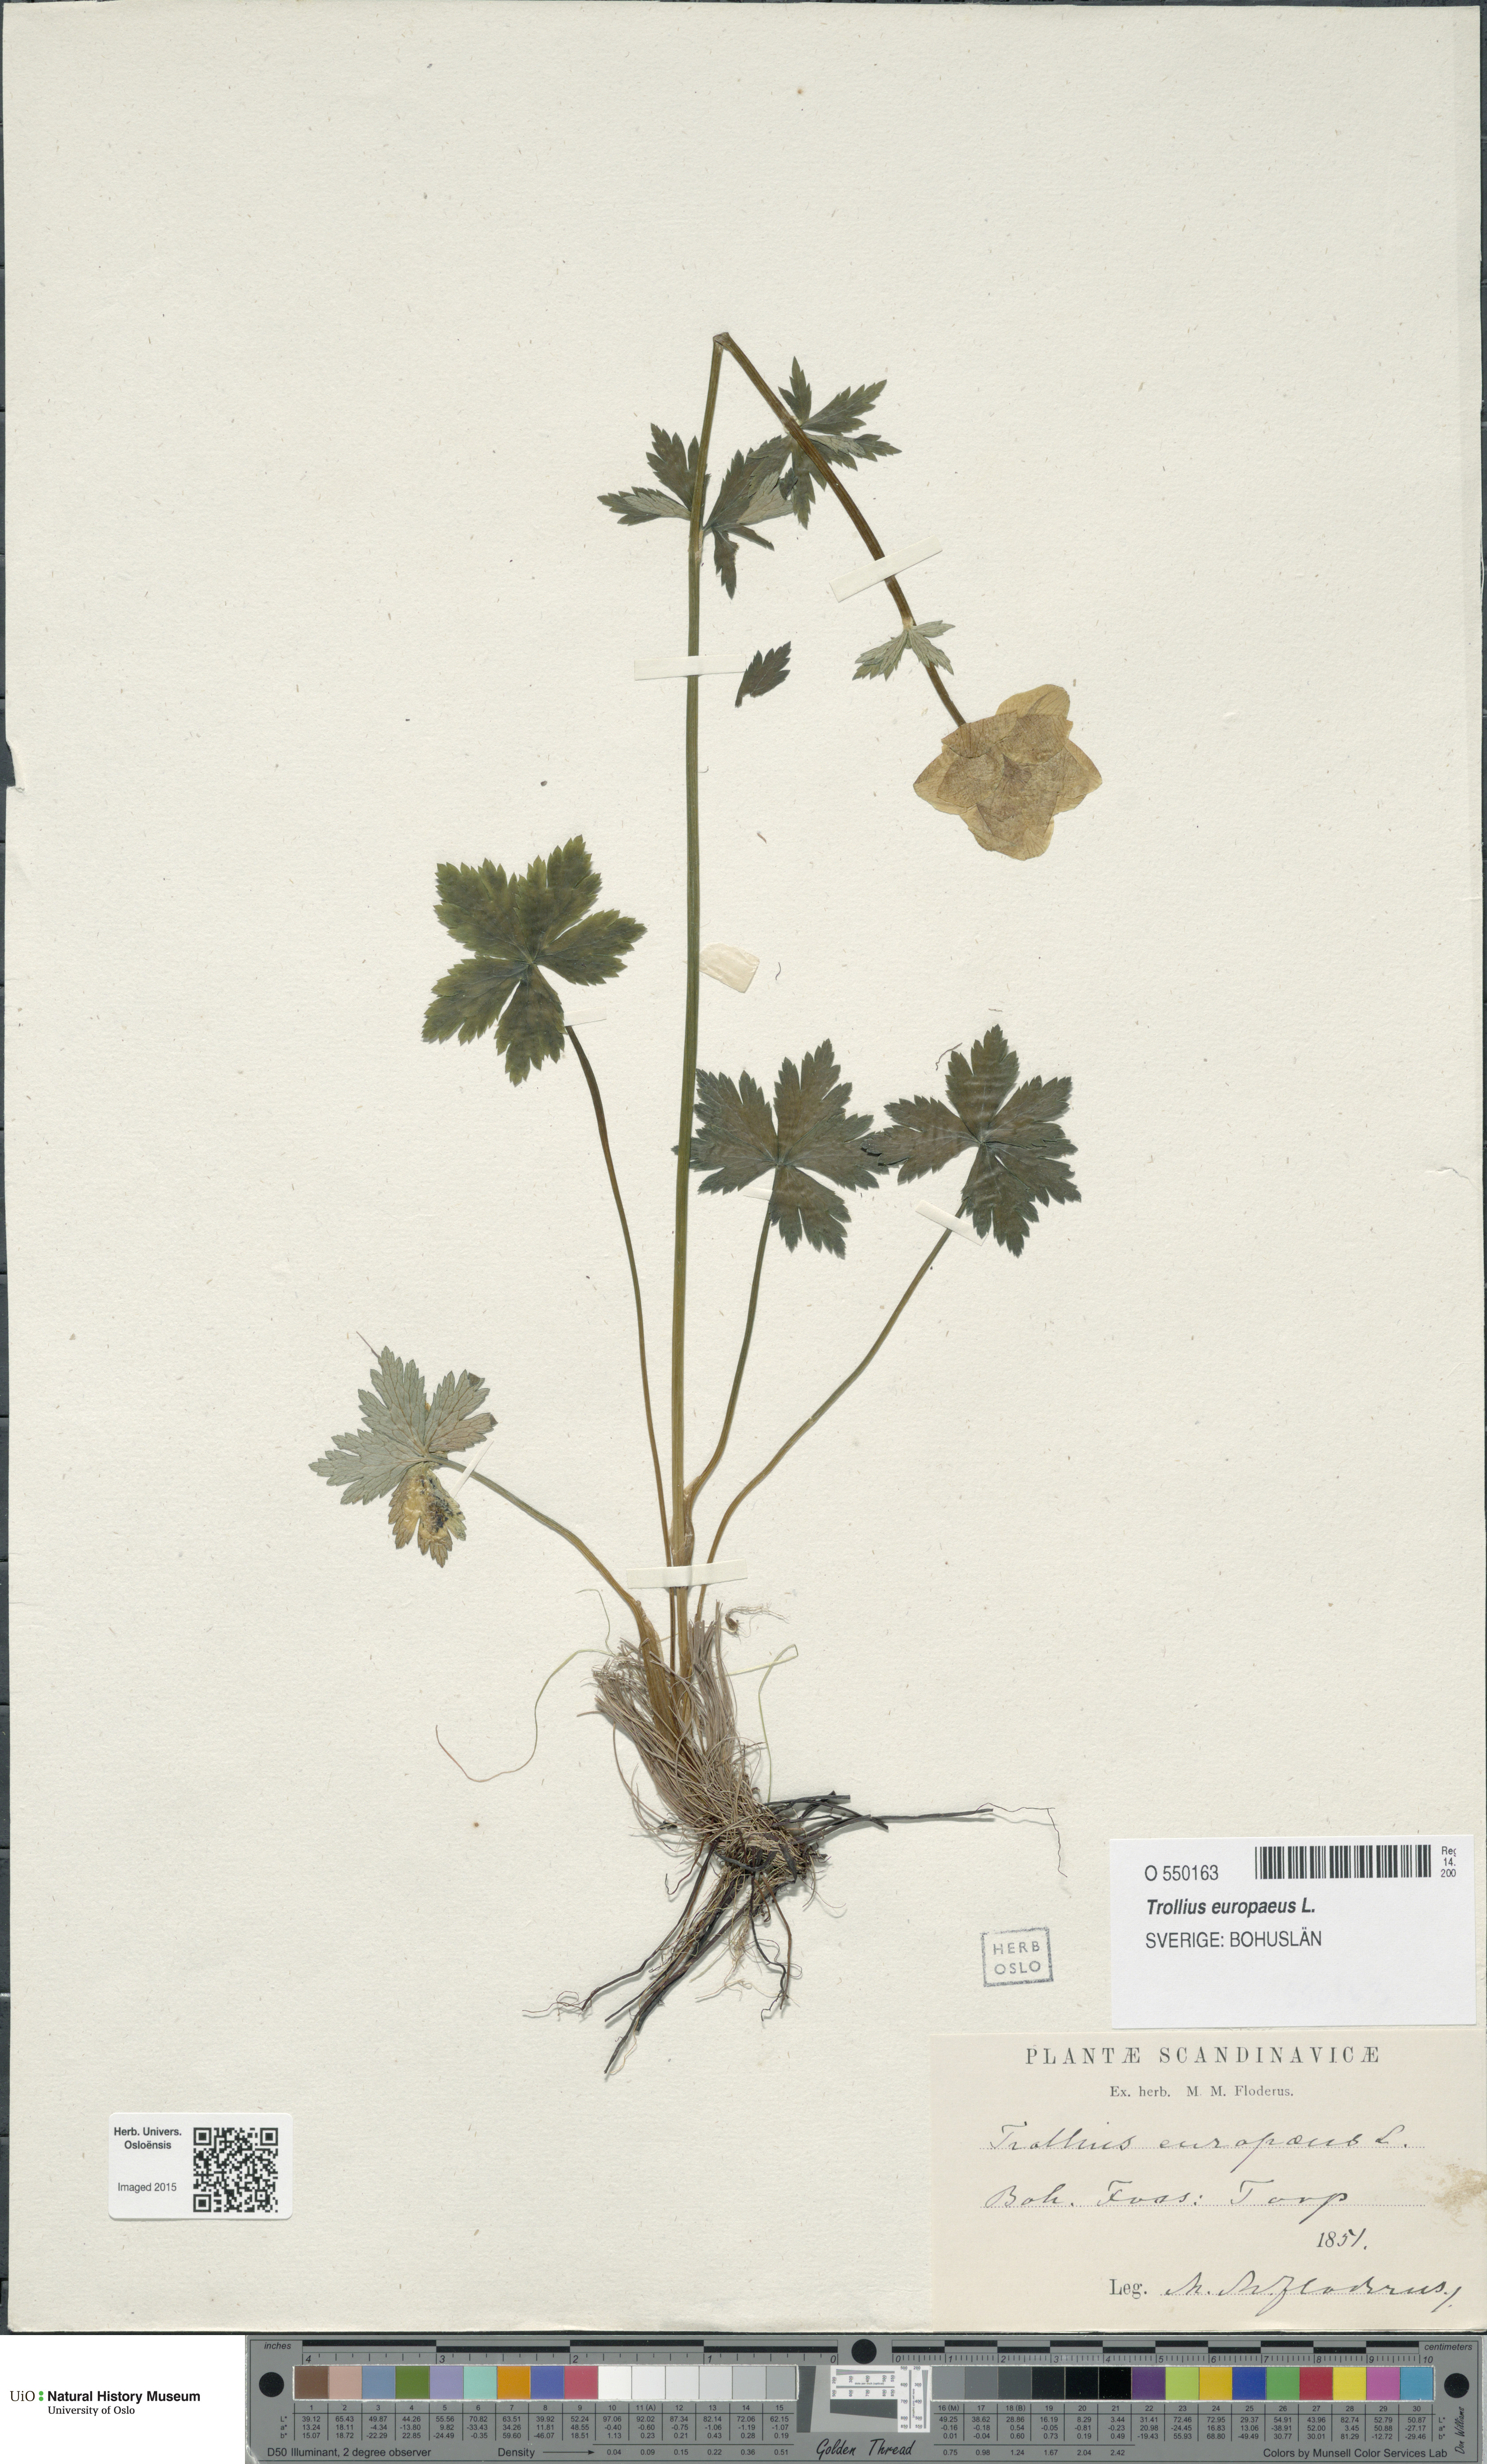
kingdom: Plantae
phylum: Tracheophyta
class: Magnoliopsida
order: Ranunculales
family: Ranunculaceae
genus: Trollius
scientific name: Trollius europaeus
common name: European globeflower
